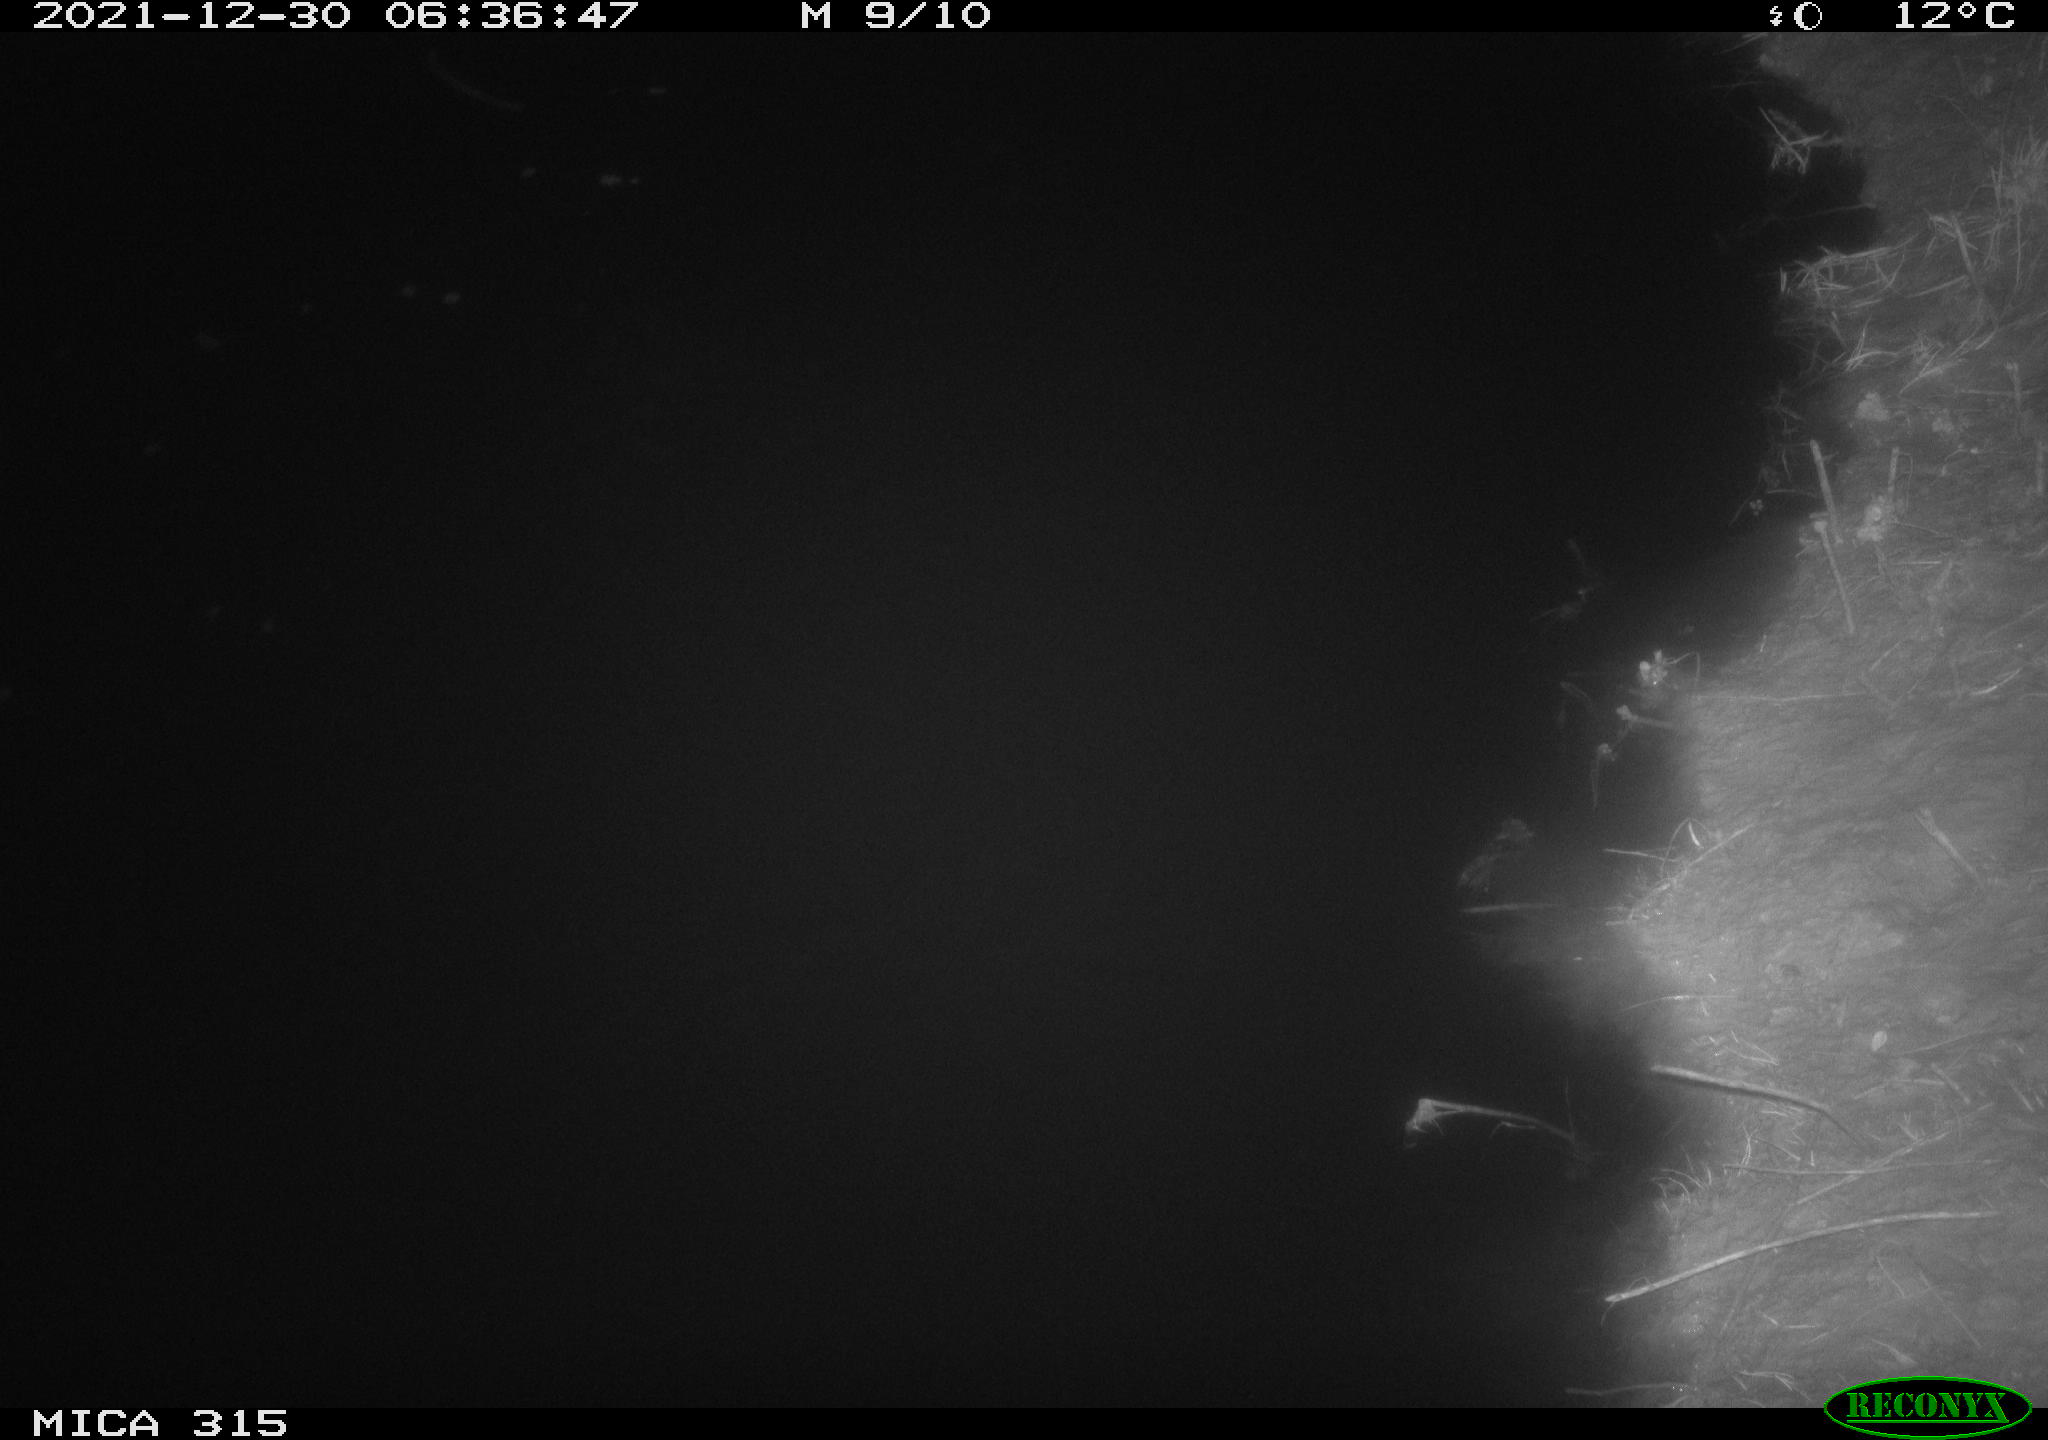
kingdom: Animalia
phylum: Chordata
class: Mammalia
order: Rodentia
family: Muridae
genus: Rattus
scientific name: Rattus norvegicus
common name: Brown rat
